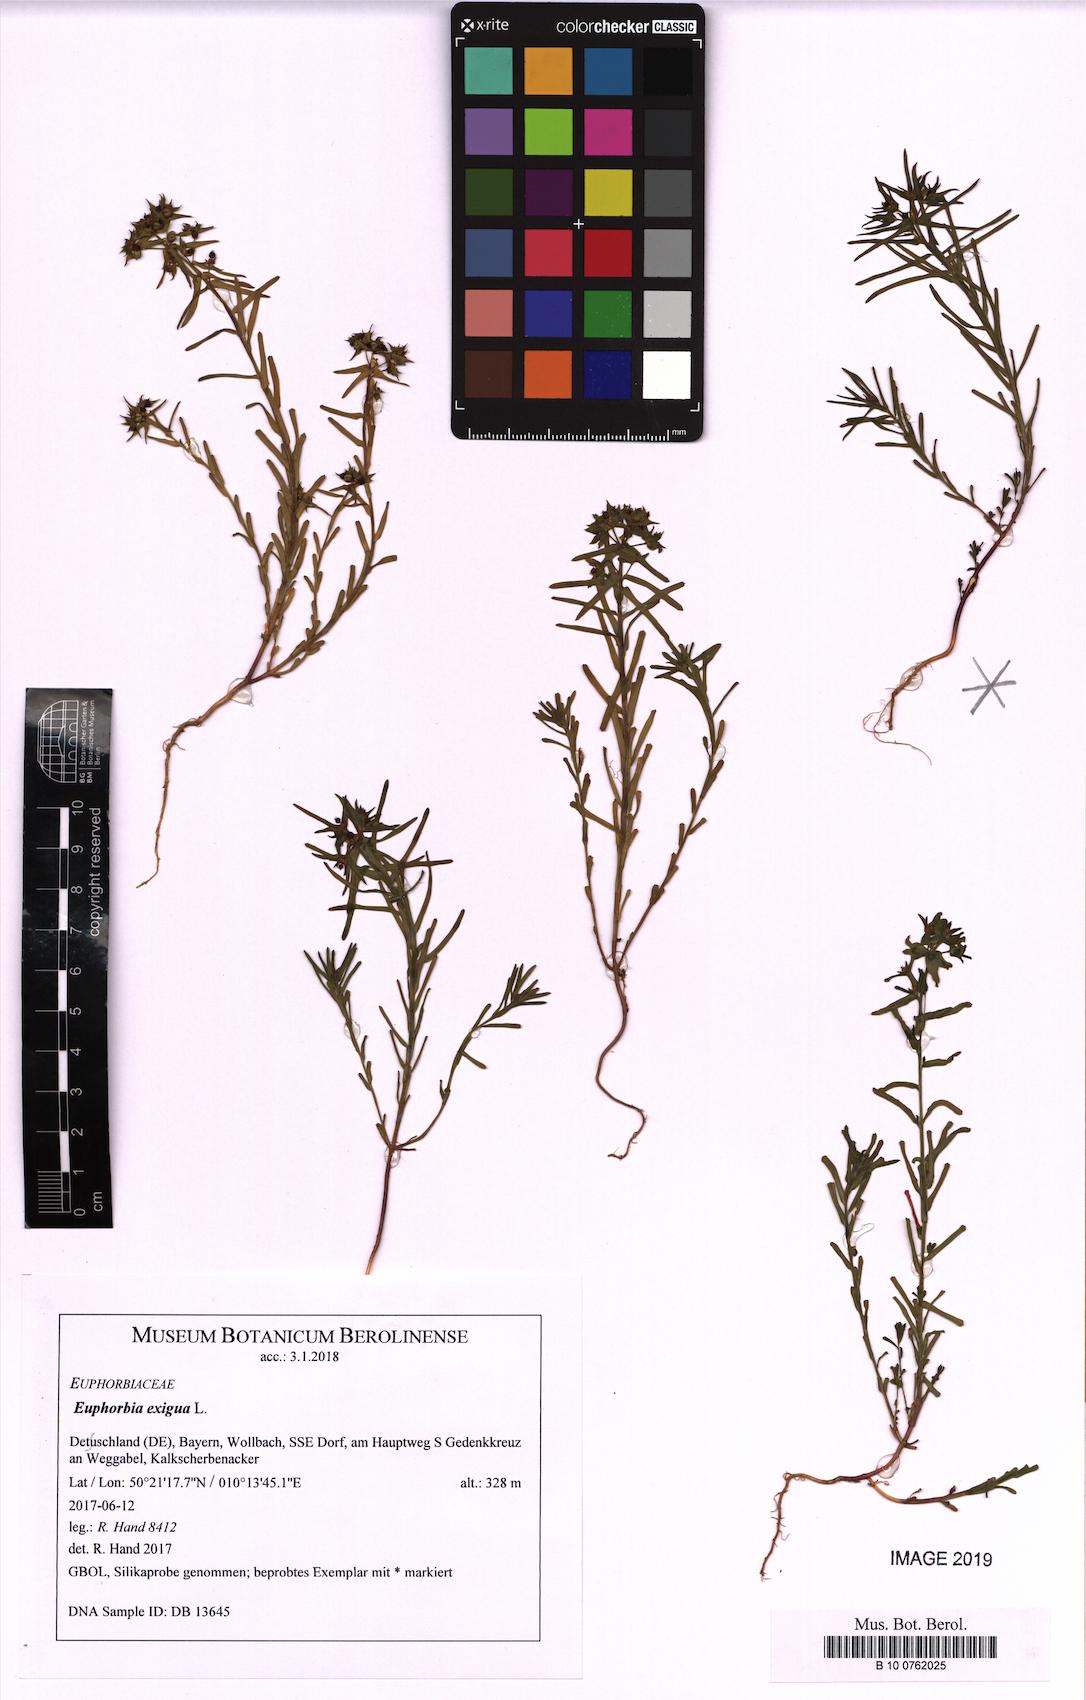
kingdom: Plantae
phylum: Tracheophyta
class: Magnoliopsida
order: Malpighiales
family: Euphorbiaceae
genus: Euphorbia
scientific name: Euphorbia exigua
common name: Dwarf spurge
